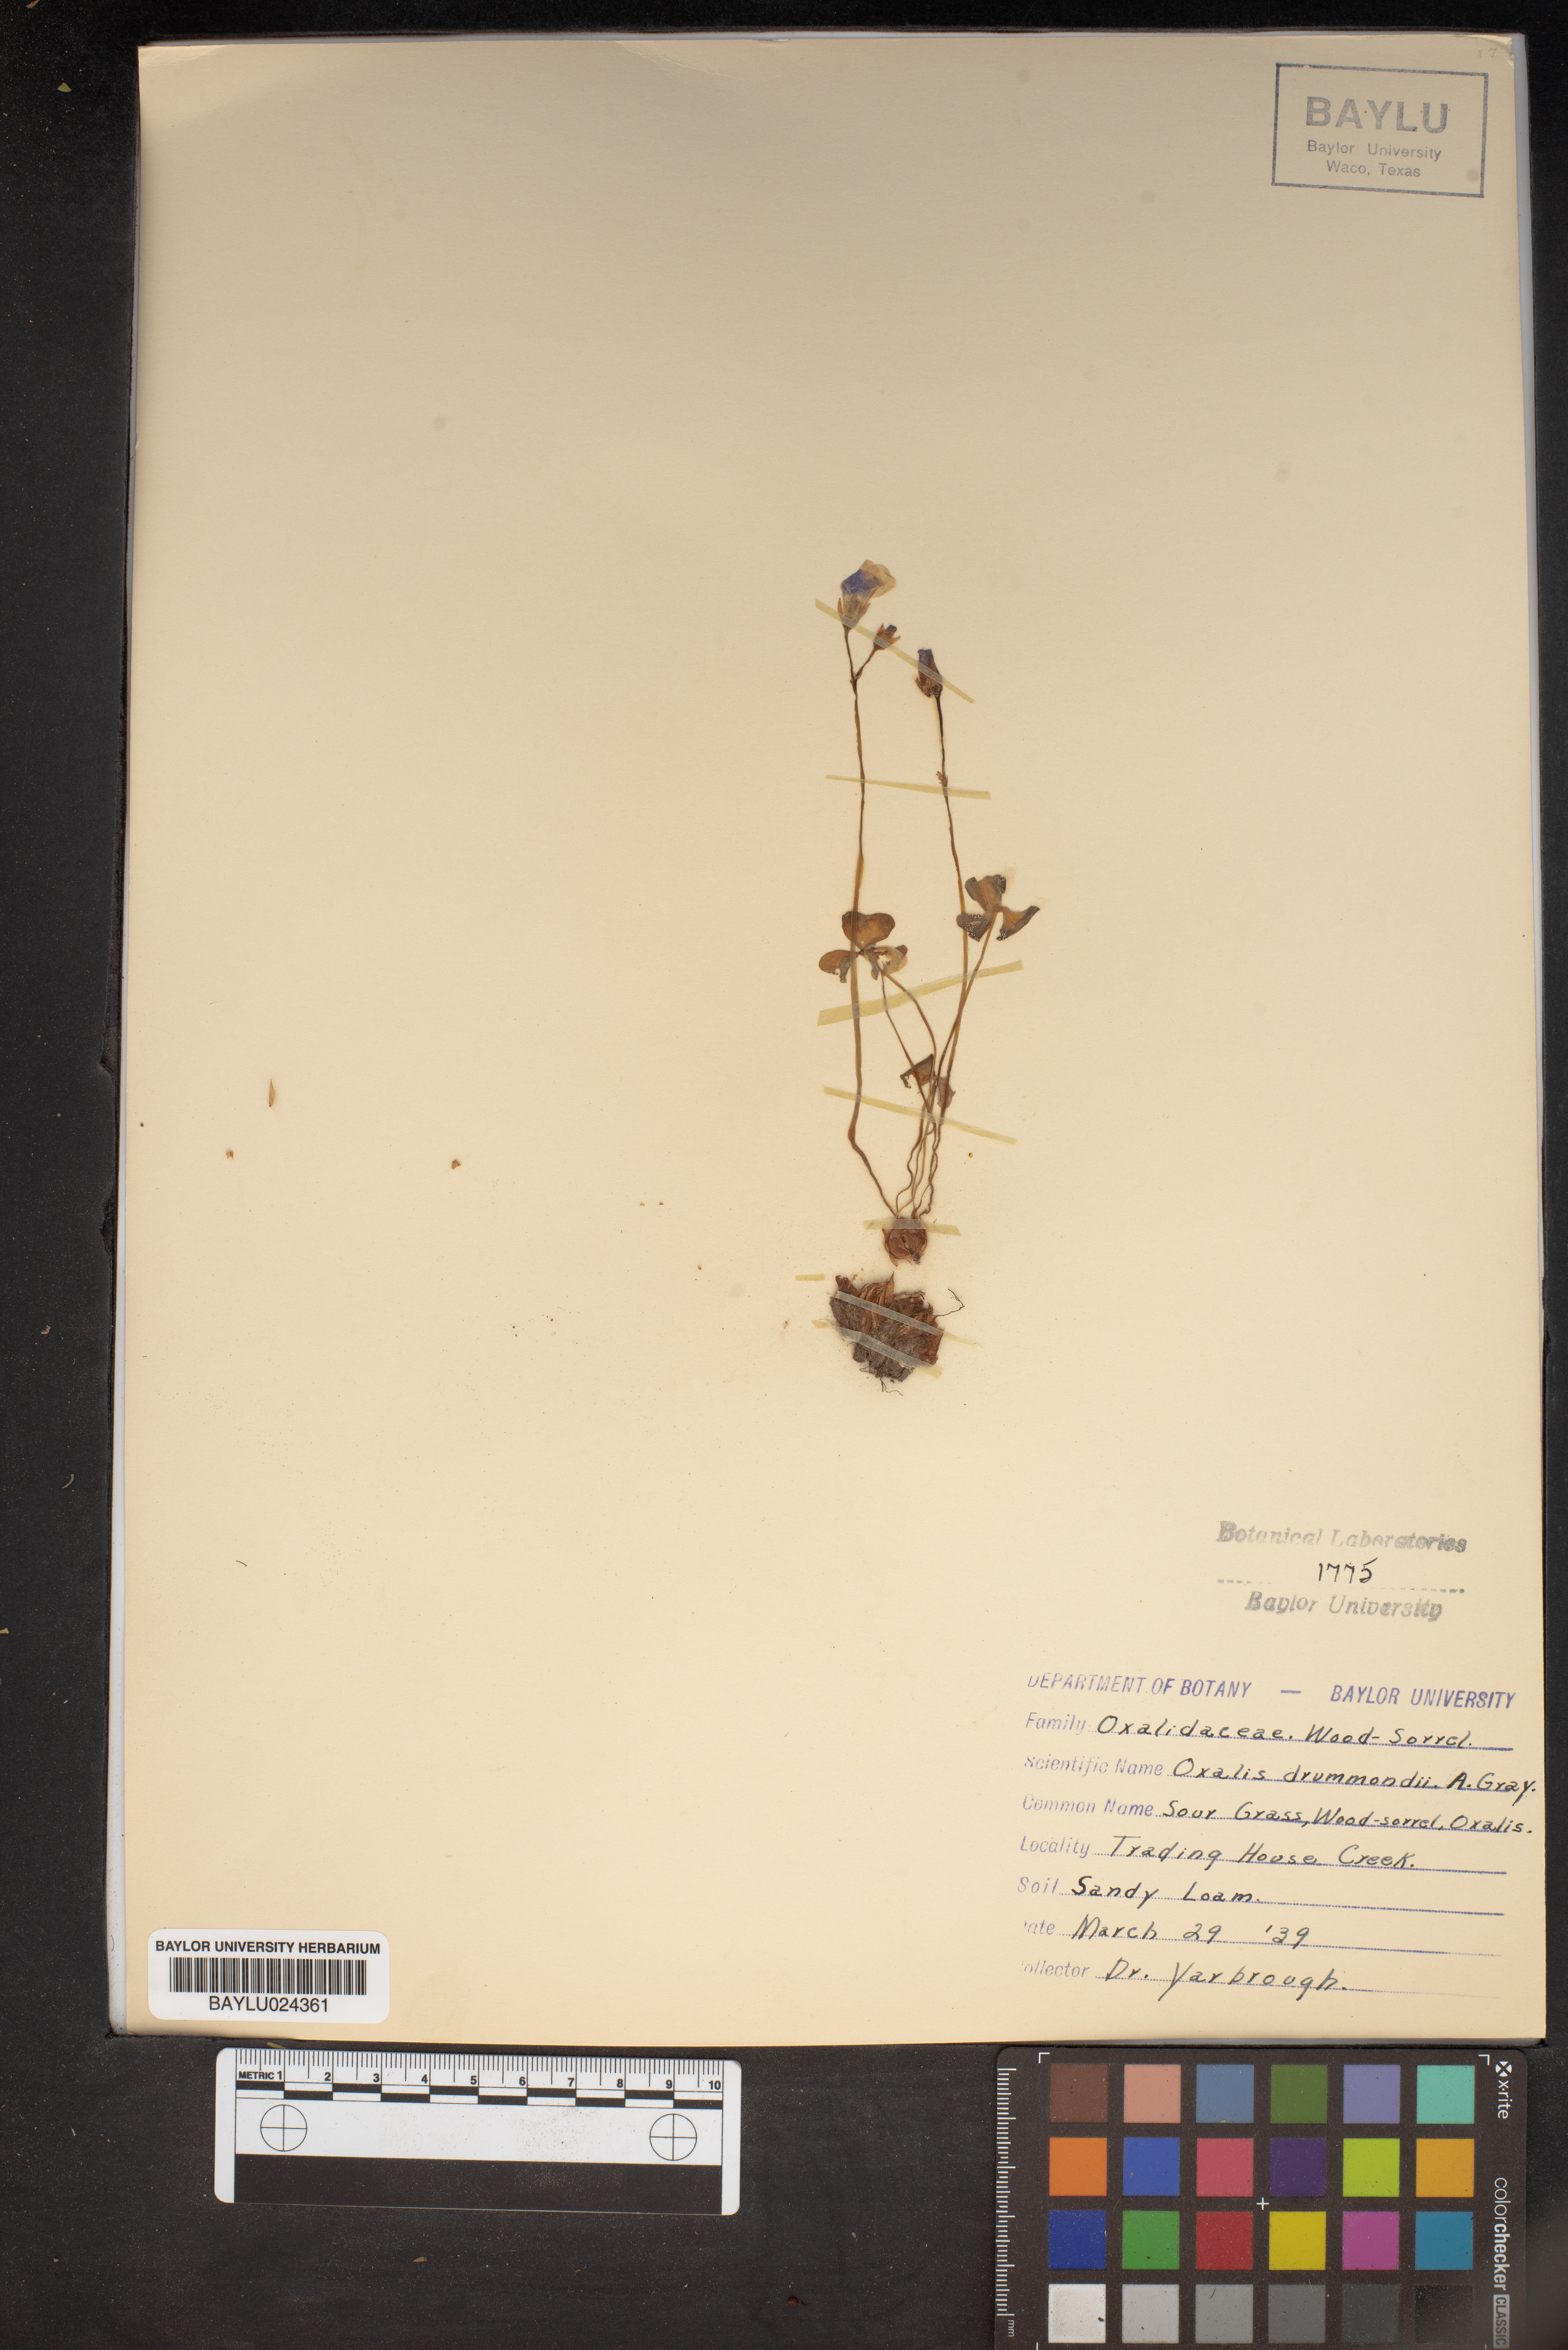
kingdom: Plantae
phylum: Tracheophyta
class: Magnoliopsida
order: Oxalidales
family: Oxalidaceae
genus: Oxalis
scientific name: Oxalis drummondii
